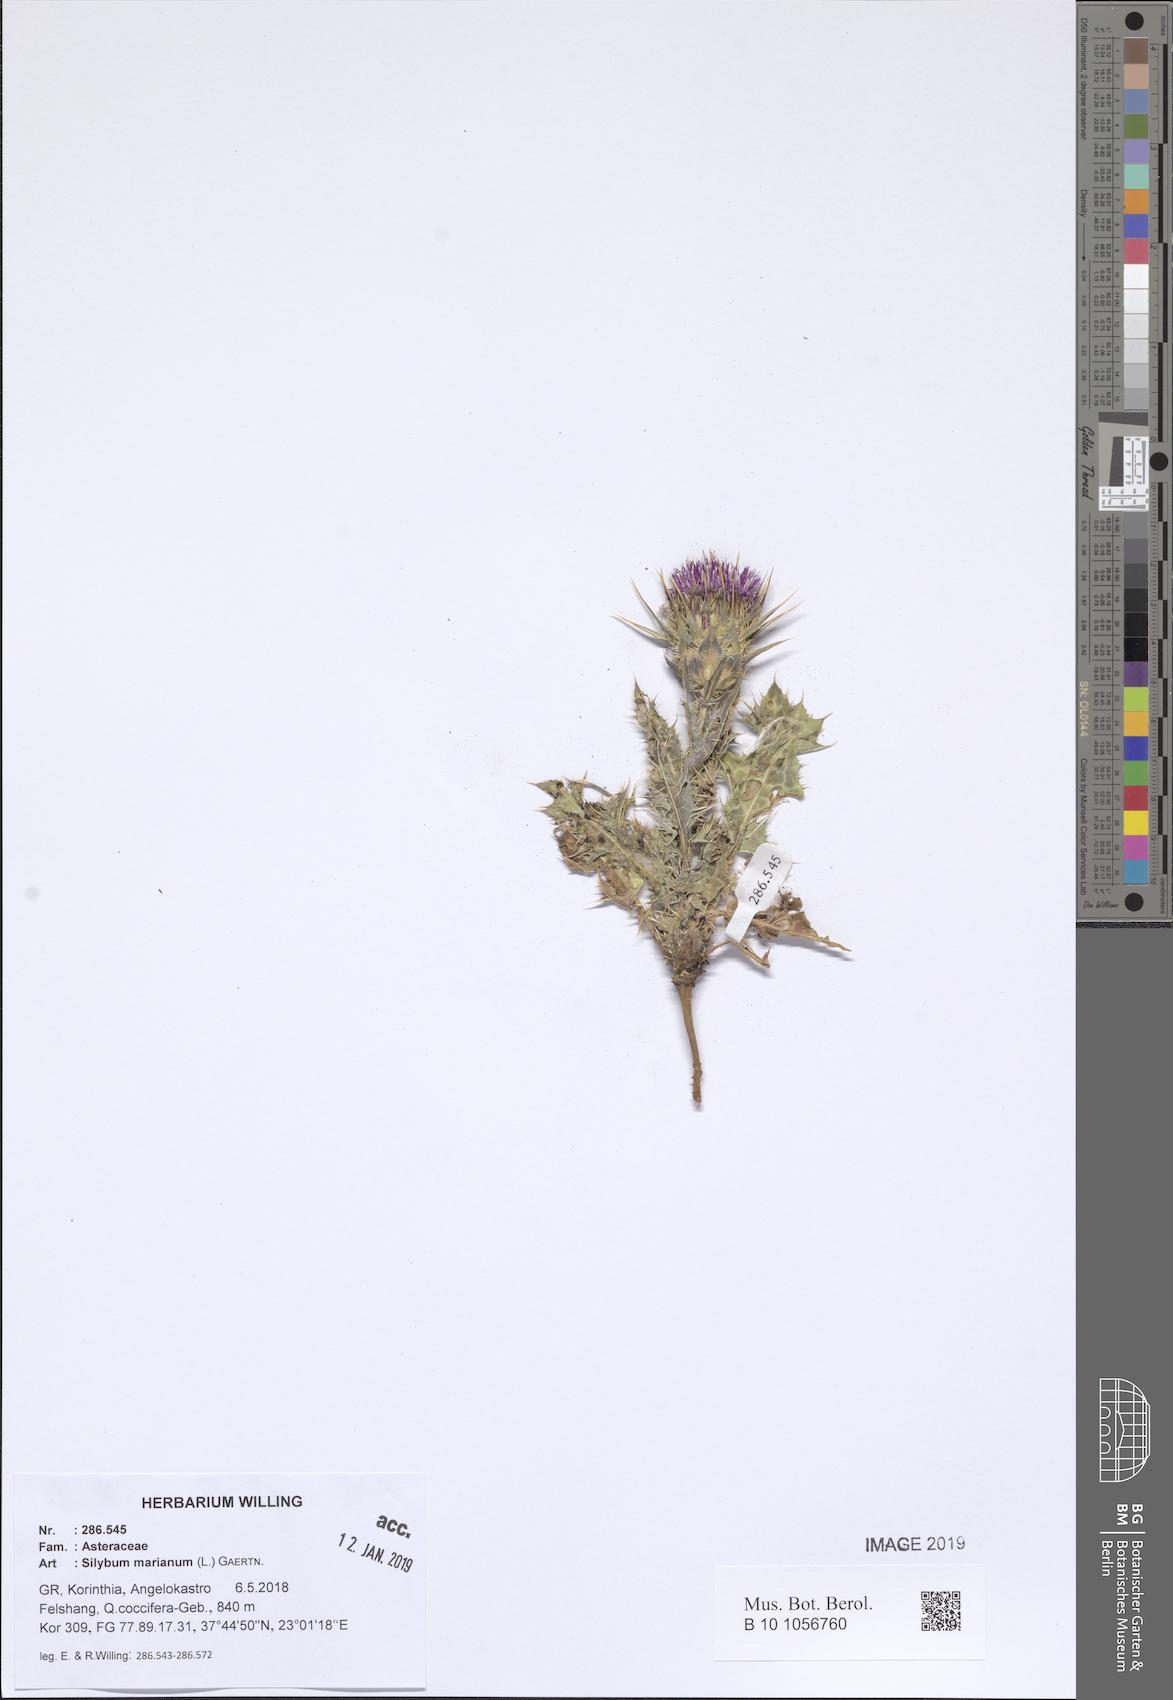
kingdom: Plantae
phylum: Tracheophyta
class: Magnoliopsida
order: Asterales
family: Asteraceae
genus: Silybum
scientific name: Silybum marianum
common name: Milk thistle
